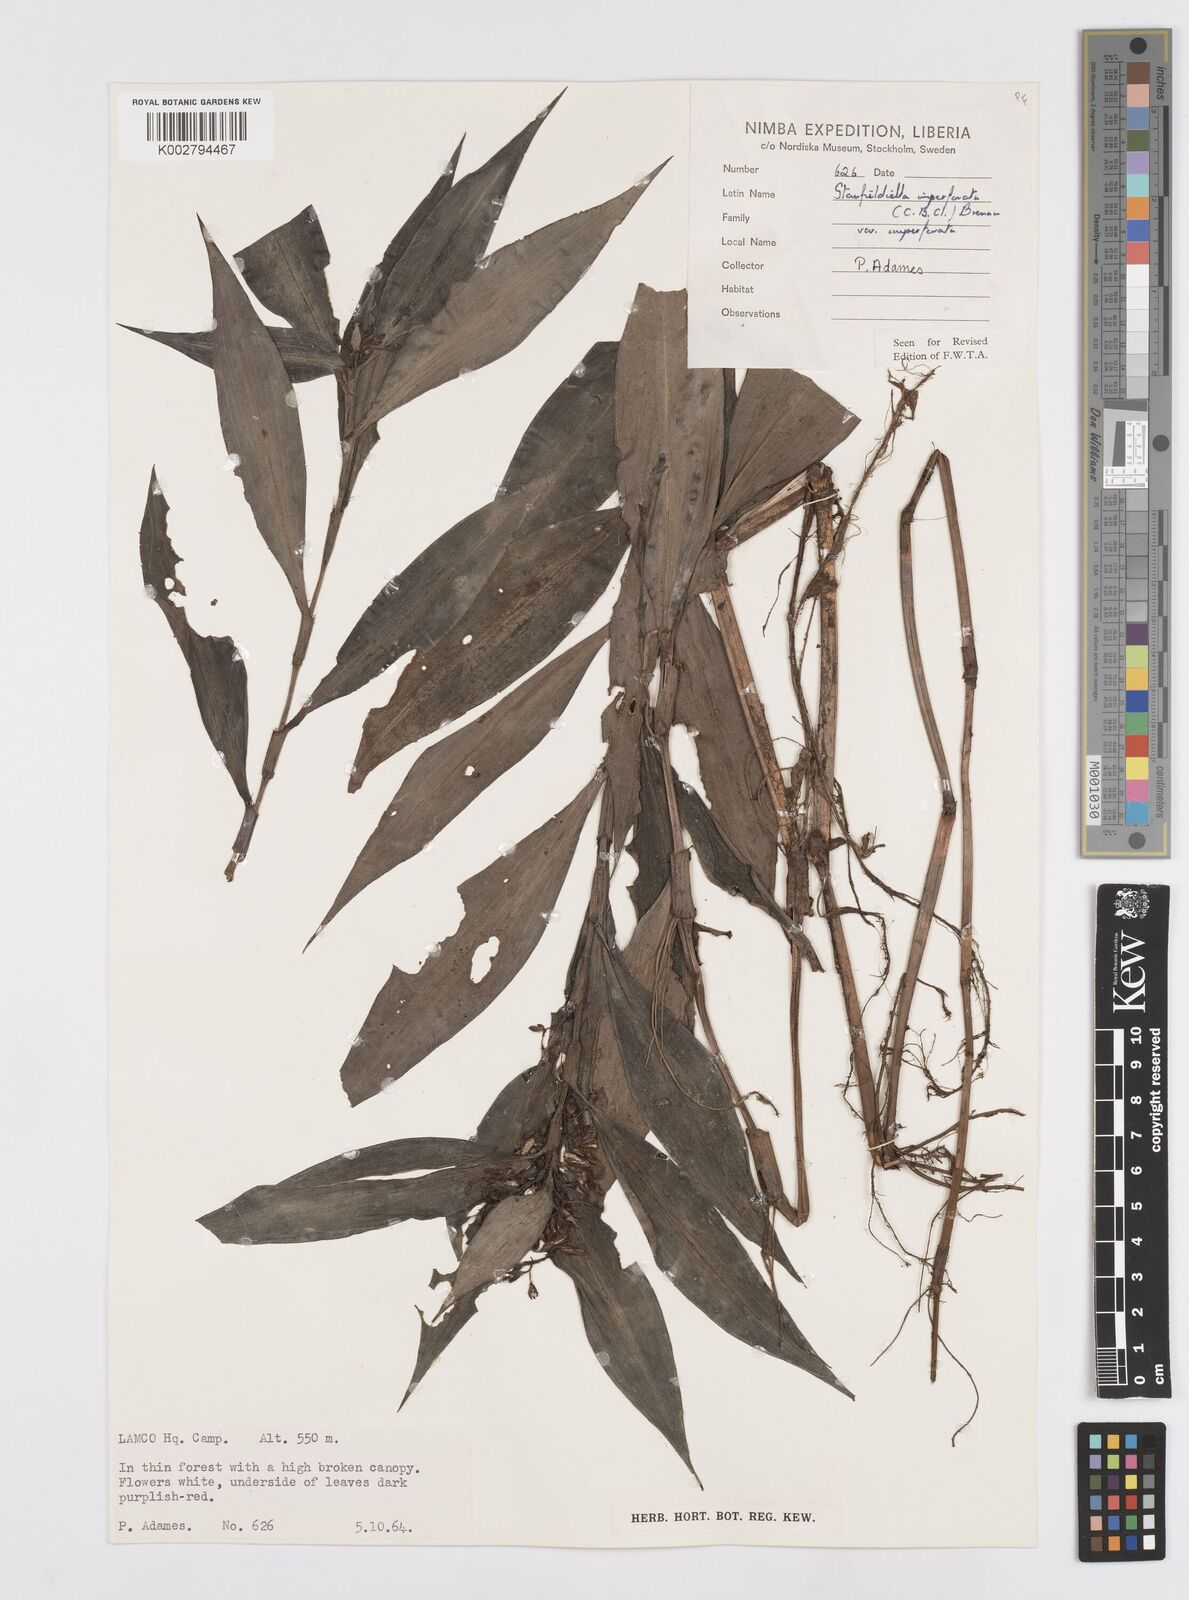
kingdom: Plantae
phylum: Tracheophyta
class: Liliopsida
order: Commelinales
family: Commelinaceae
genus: Stanfieldiella
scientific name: Stanfieldiella imperforata
